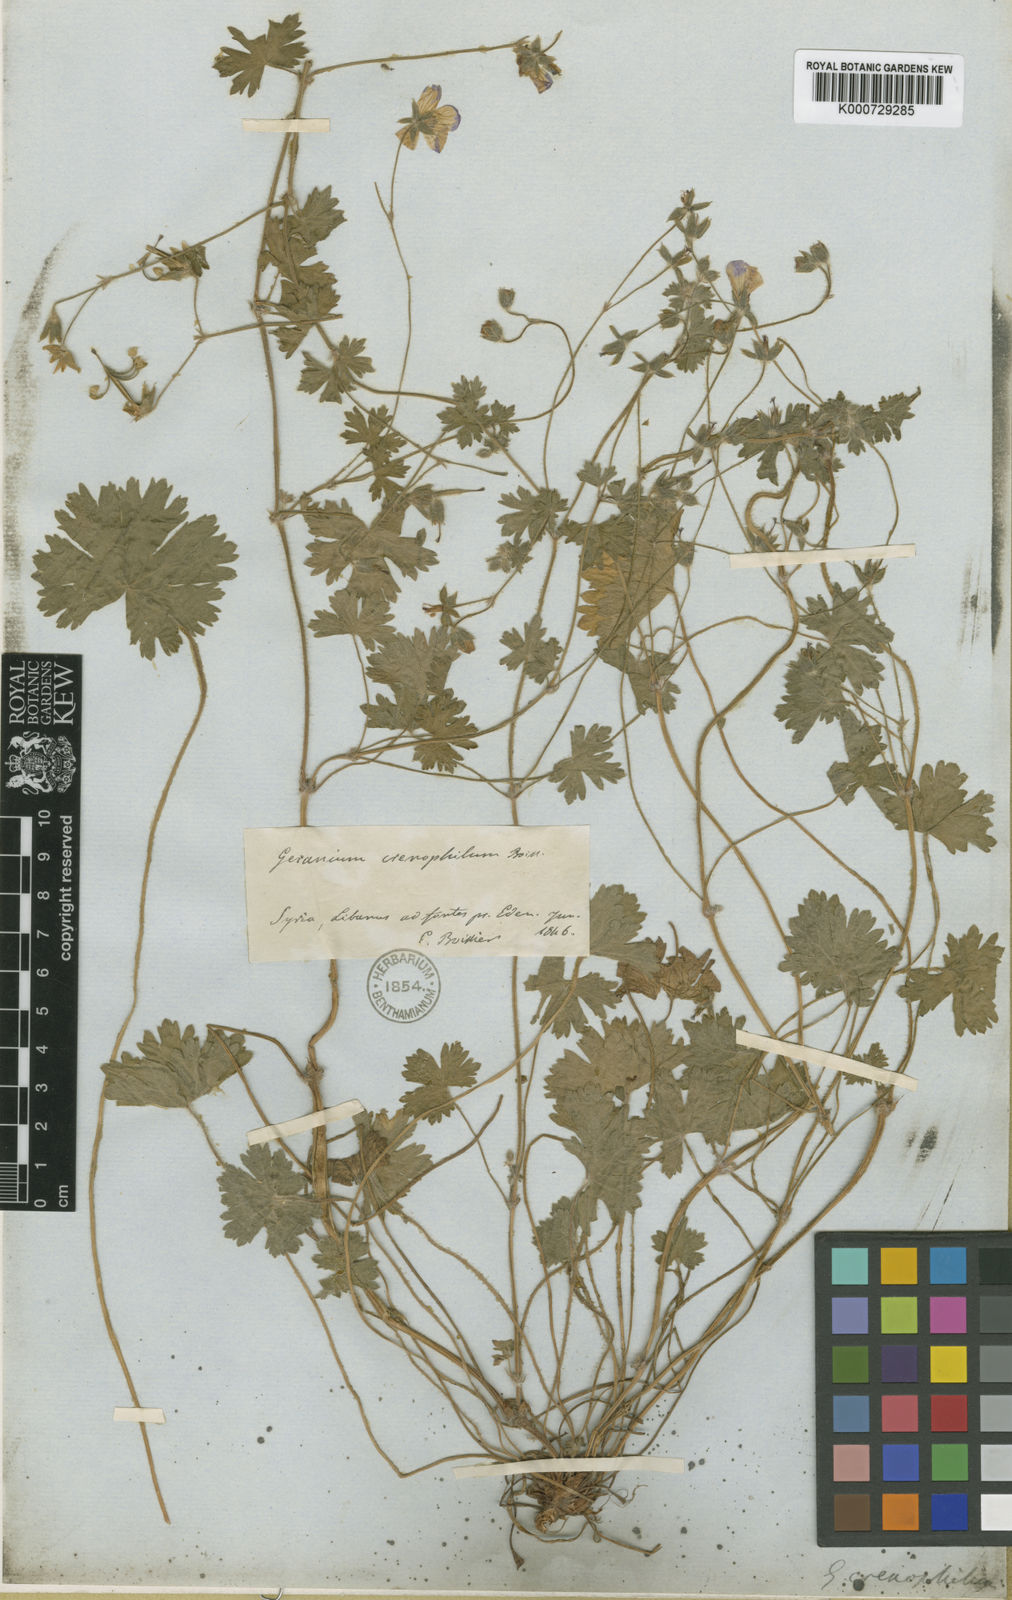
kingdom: Plantae
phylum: Tracheophyta
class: Magnoliopsida
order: Geraniales
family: Geraniaceae
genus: Geranium
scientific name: Geranium asphodeloides
